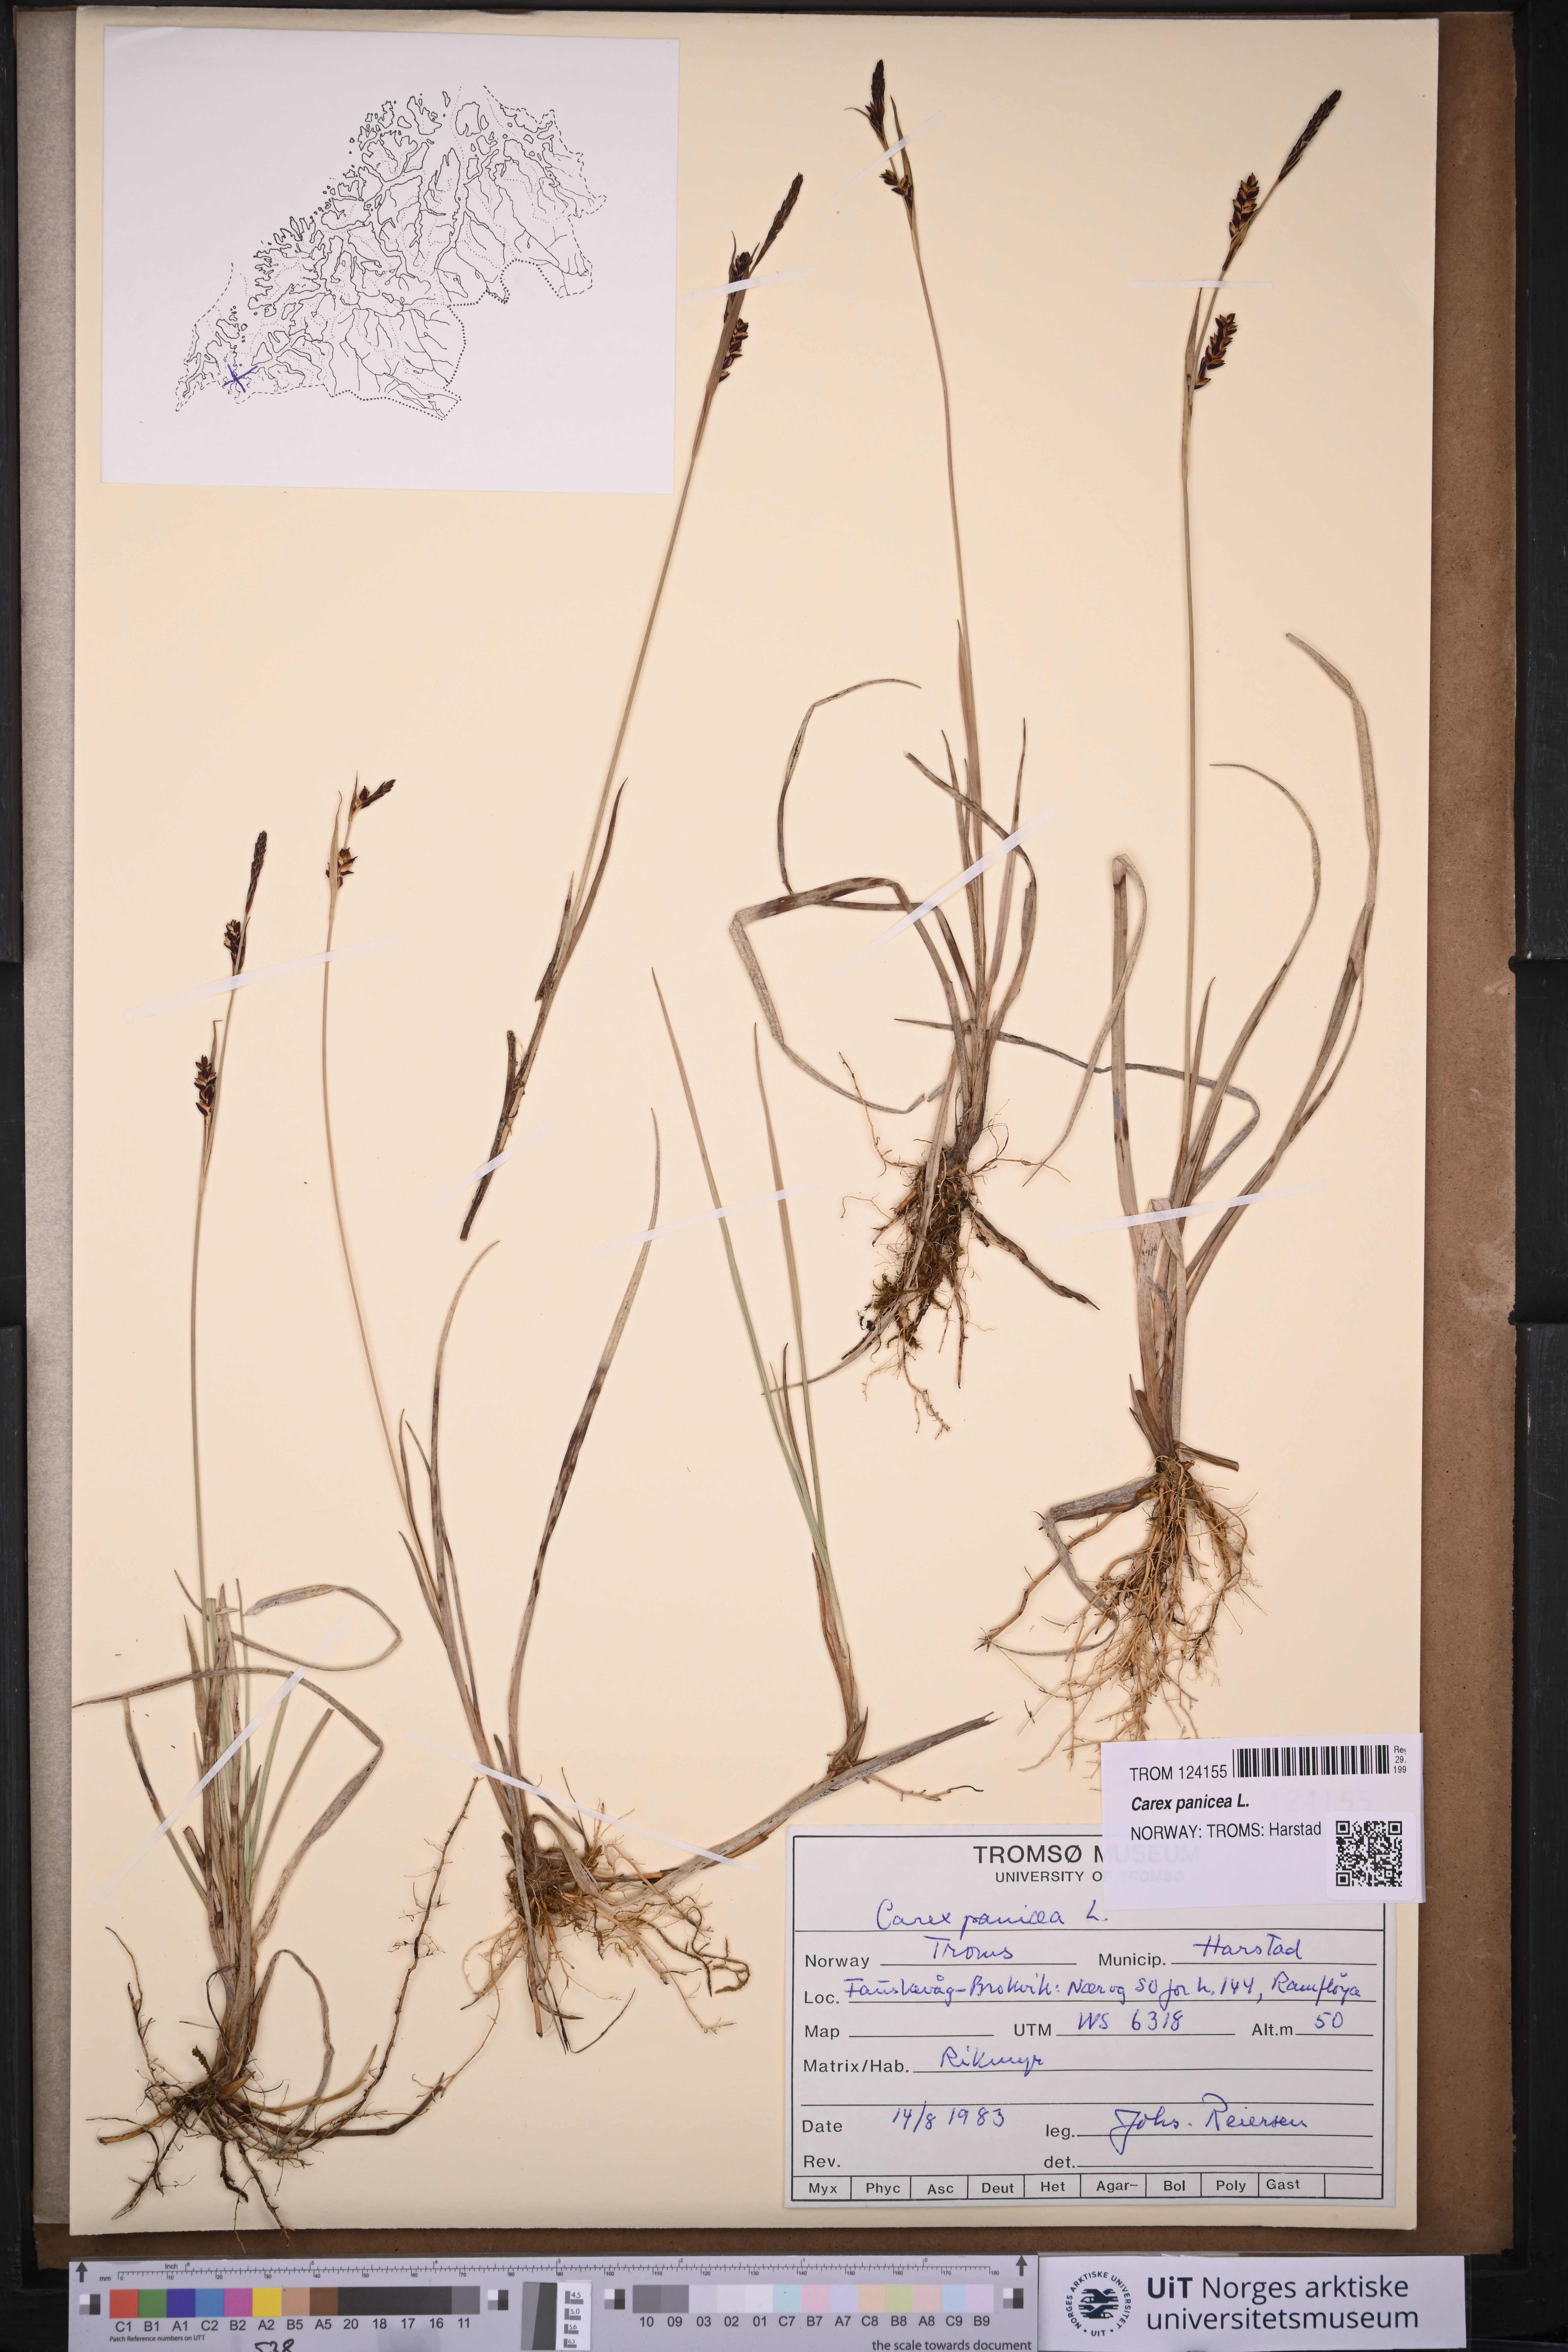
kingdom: Plantae
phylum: Tracheophyta
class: Liliopsida
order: Poales
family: Cyperaceae
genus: Carex
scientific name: Carex panicea
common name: Carnation sedge
